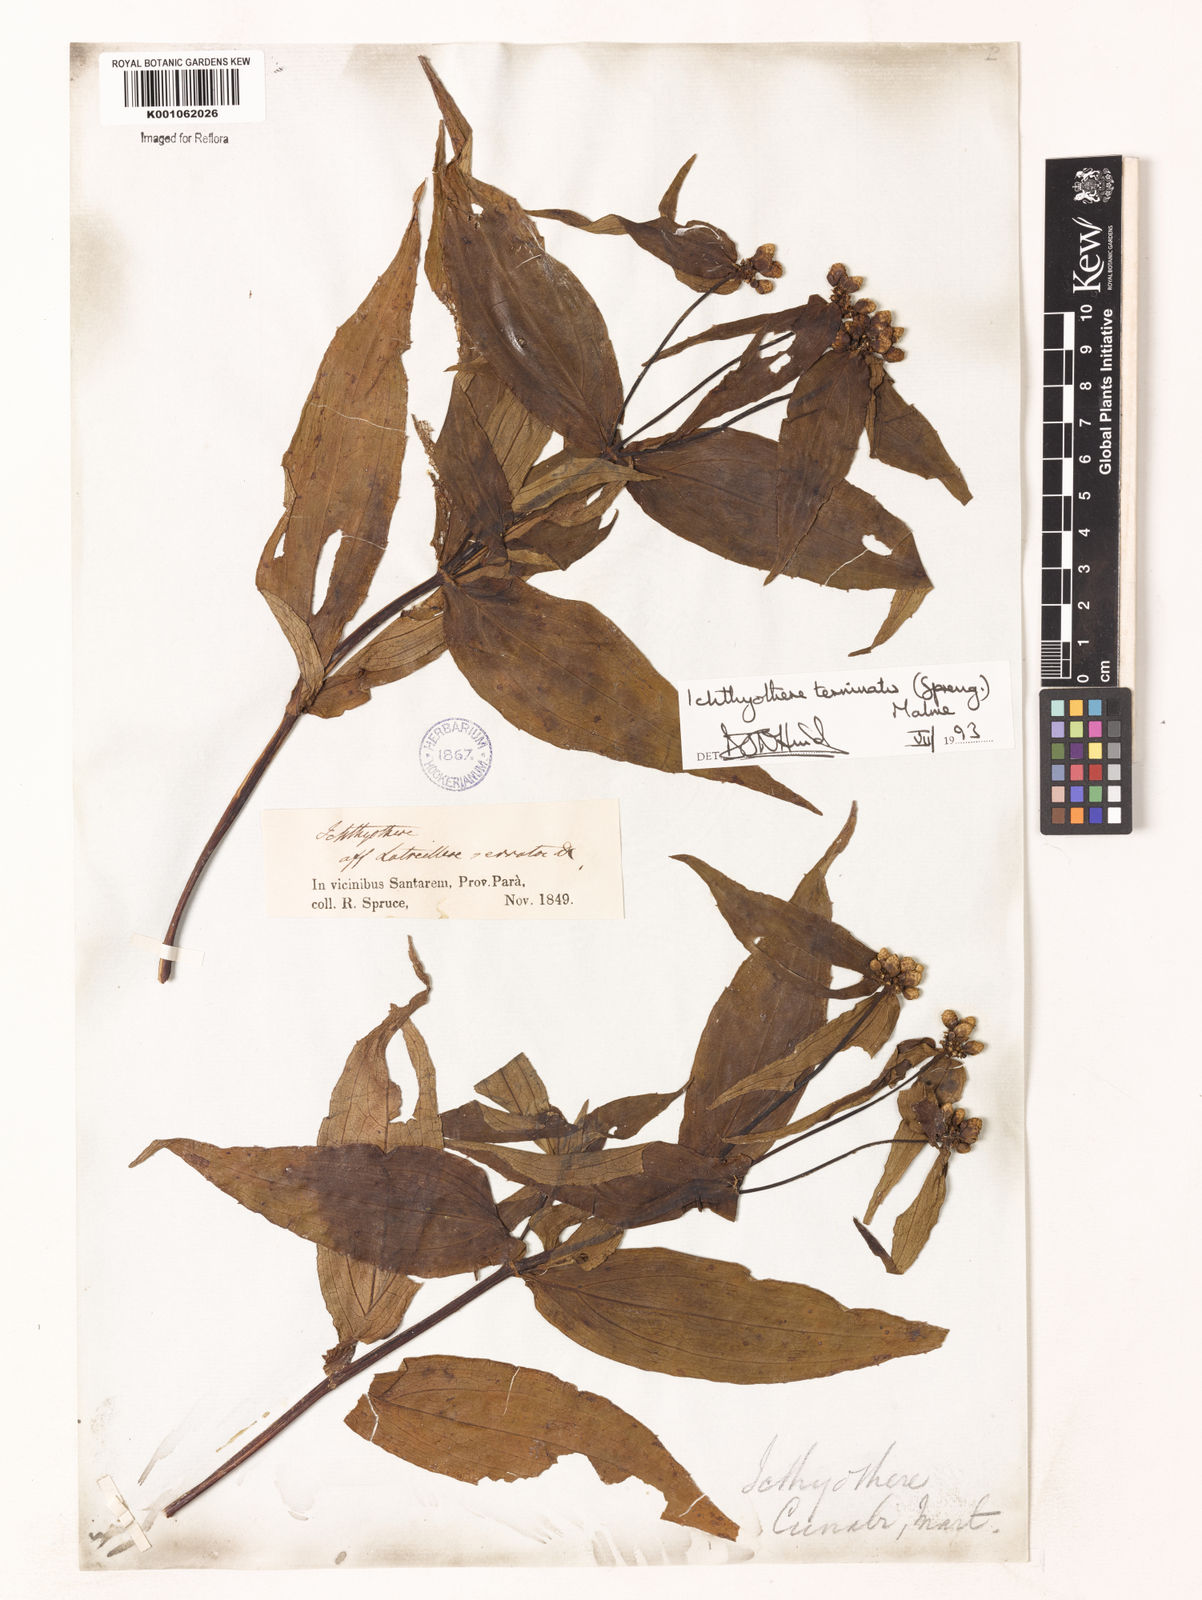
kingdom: Plantae
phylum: Tracheophyta
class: Magnoliopsida
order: Asterales
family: Asteraceae
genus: Ichthyothere
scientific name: Ichthyothere terminalis
